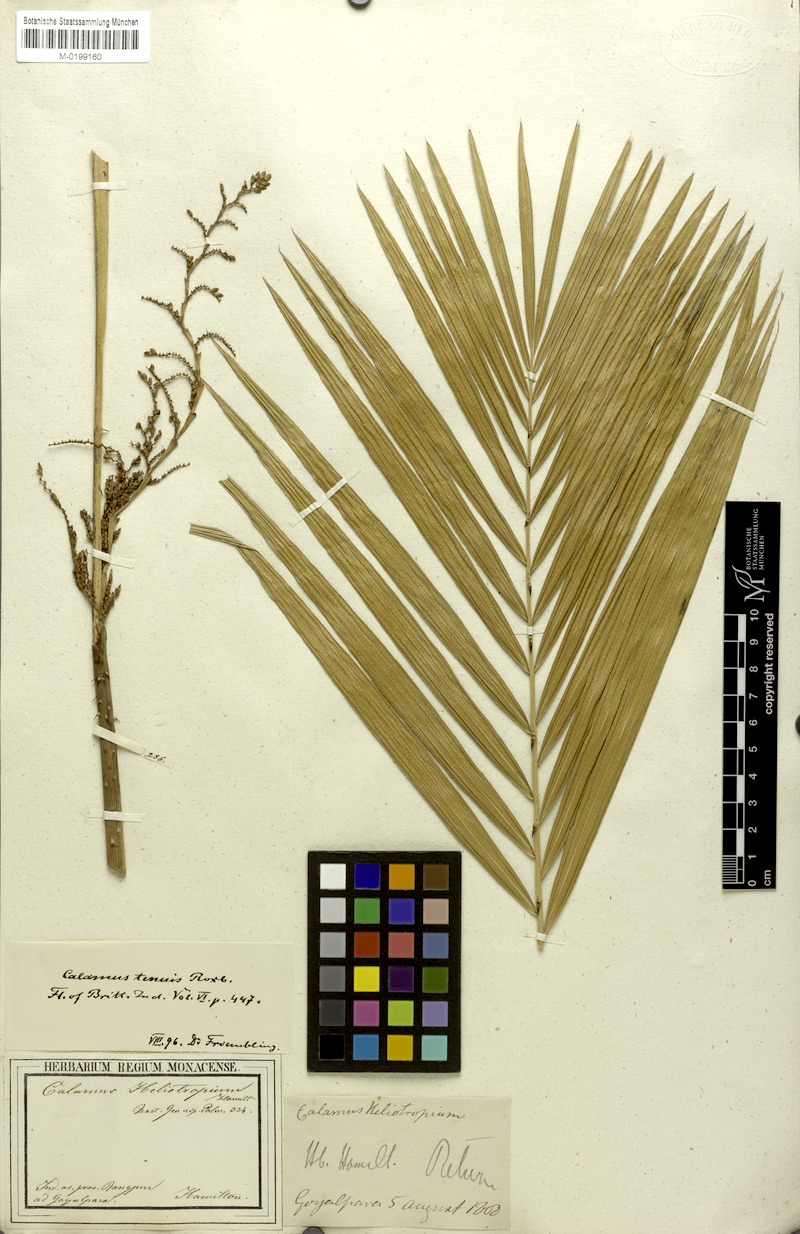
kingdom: Plantae
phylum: Tracheophyta
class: Liliopsida
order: Arecales
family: Arecaceae
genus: Calamus
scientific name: Calamus tenuis
